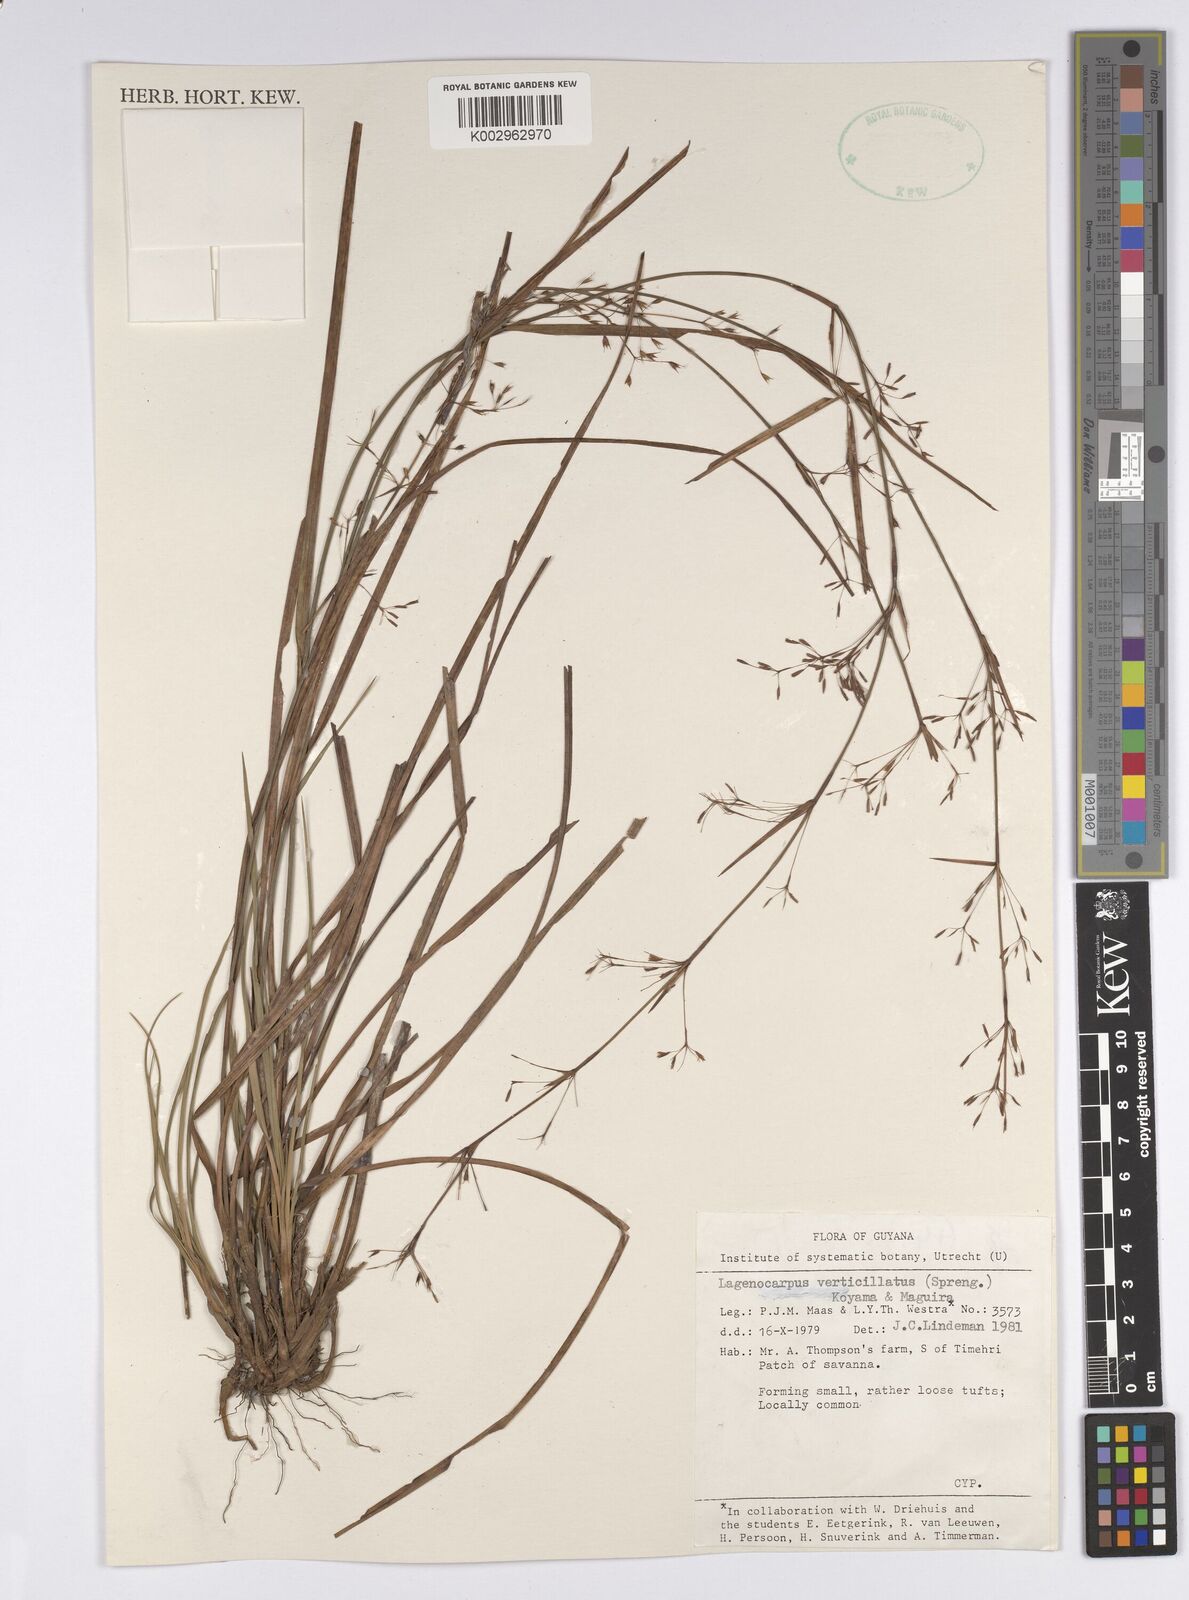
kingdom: Plantae
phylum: Tracheophyta
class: Liliopsida
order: Poales
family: Cyperaceae
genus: Cryptangium
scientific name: Cryptangium verticillatum
